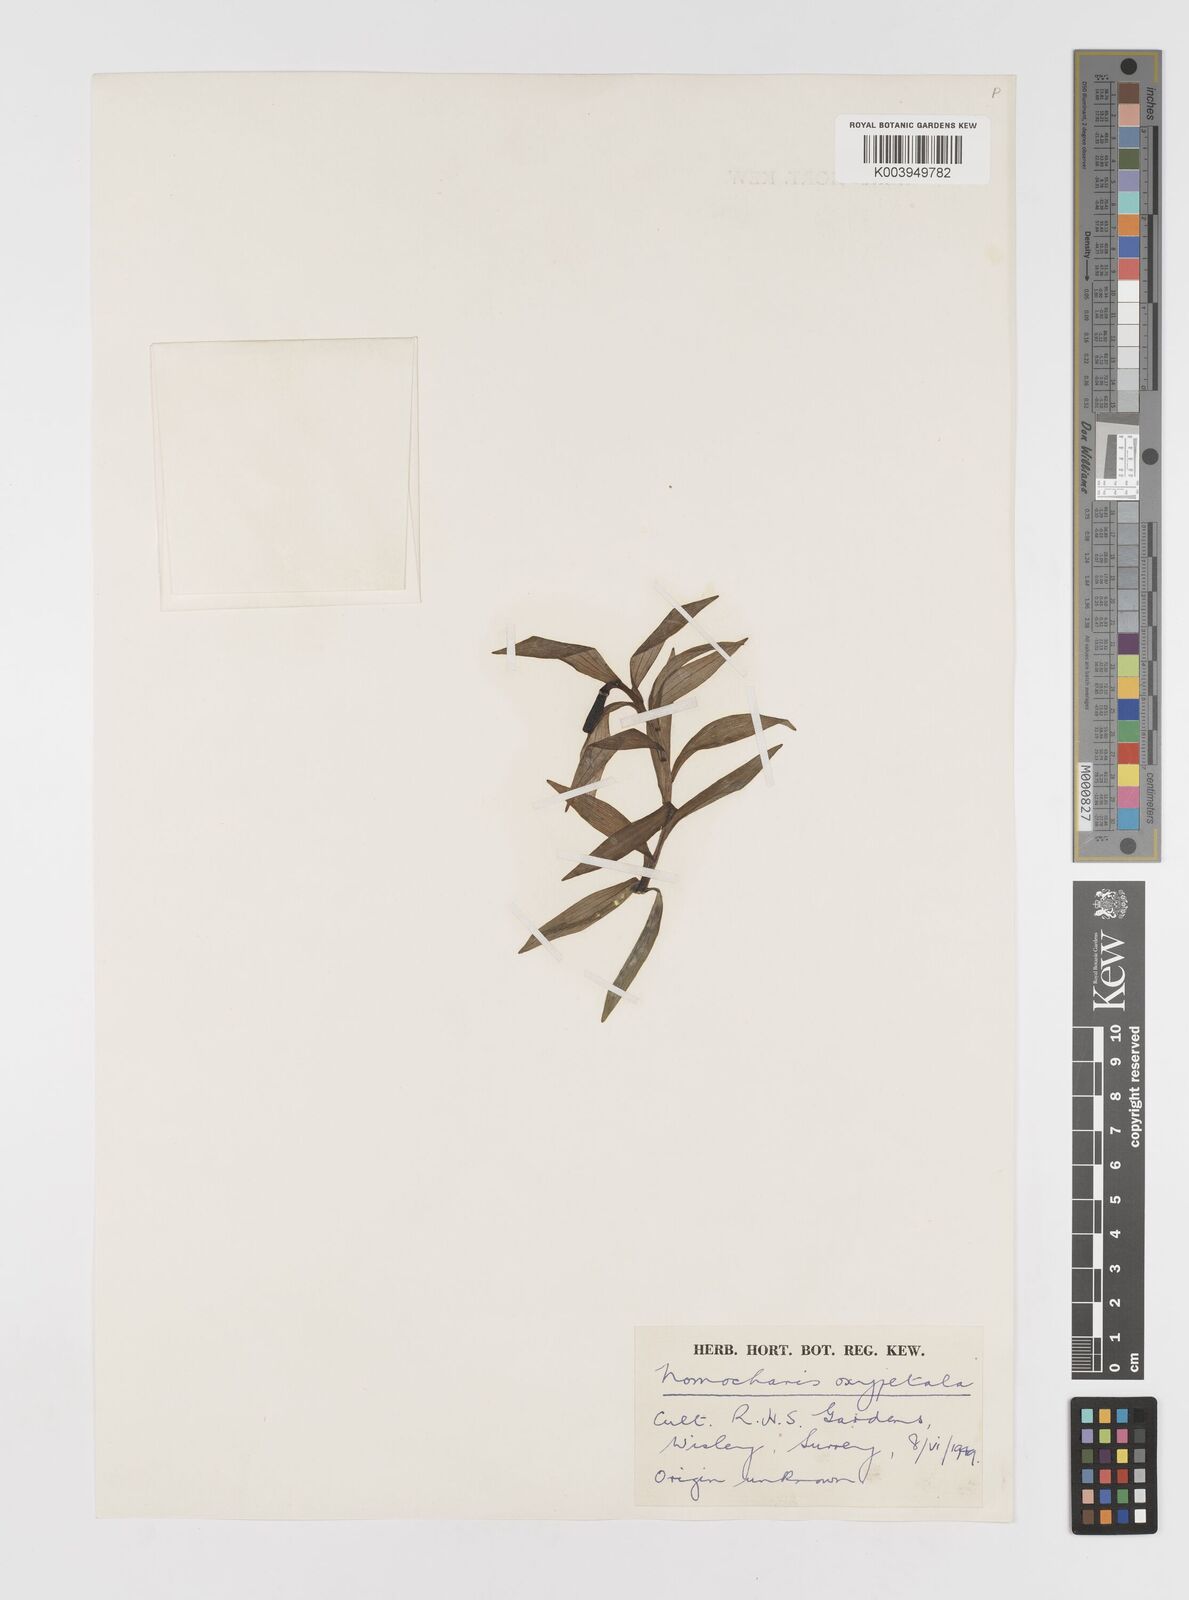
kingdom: Plantae
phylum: Tracheophyta
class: Liliopsida
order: Liliales
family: Liliaceae
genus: Lilium
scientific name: Lilium oxypetalum
